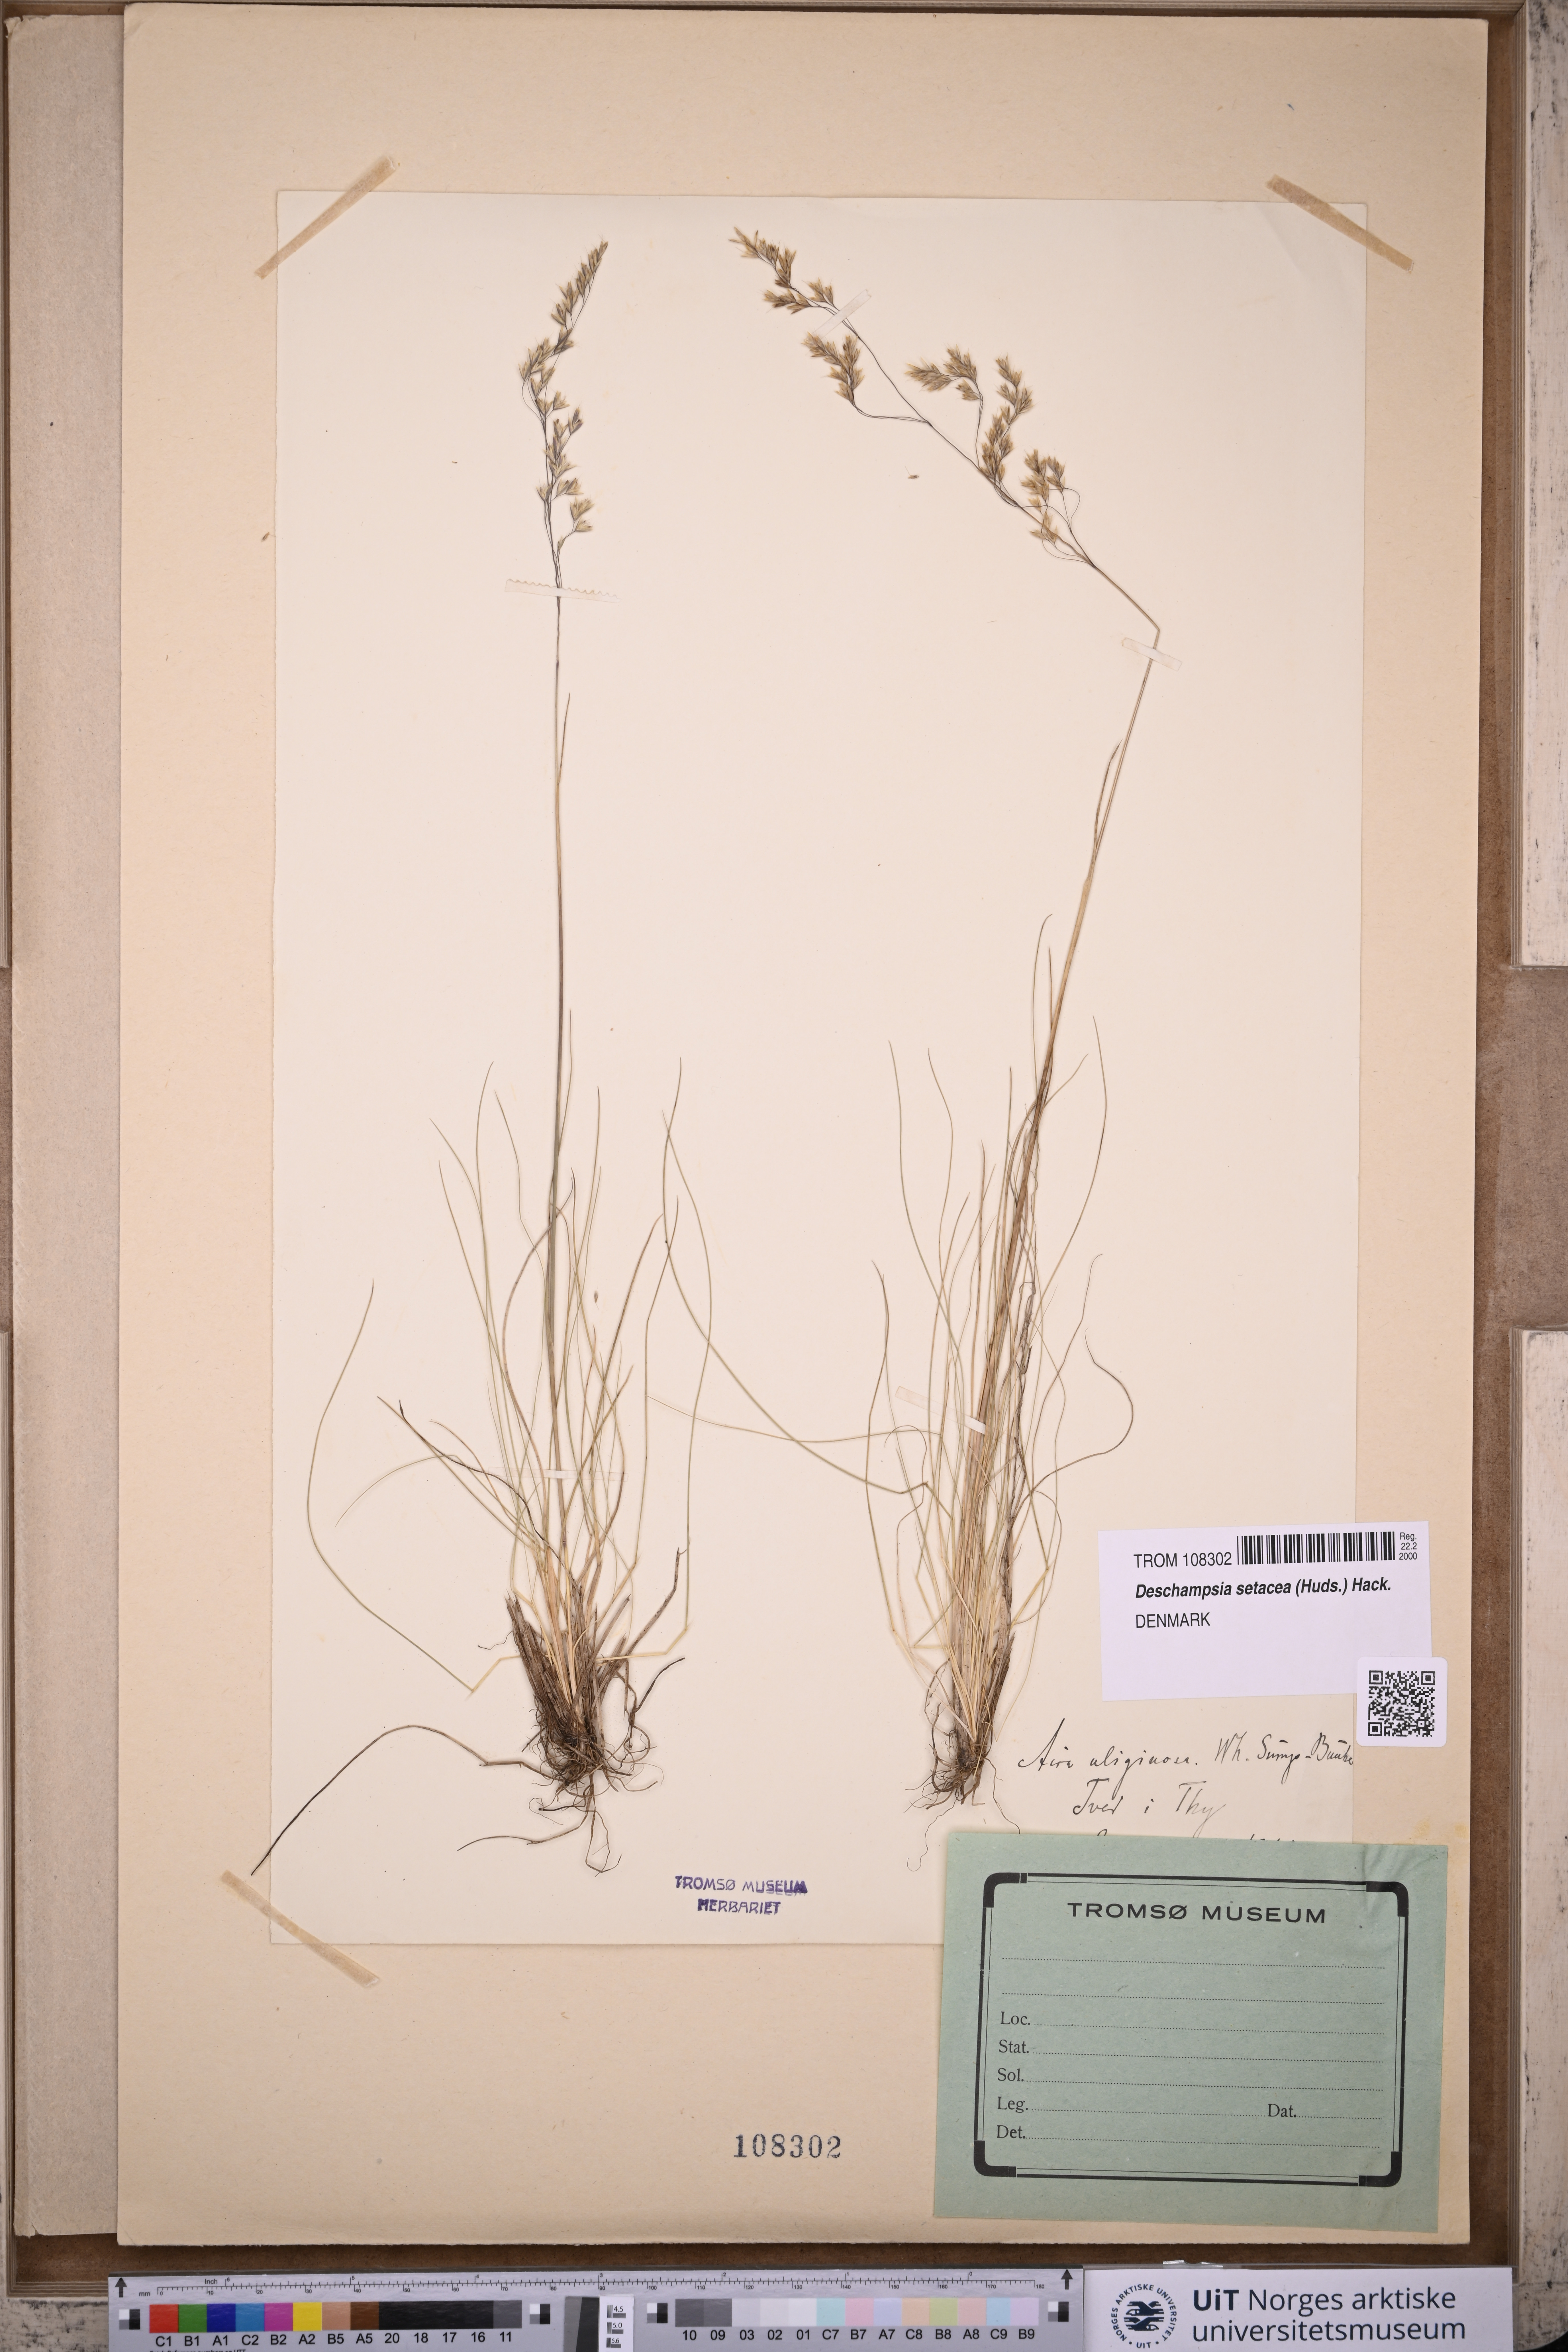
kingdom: Plantae
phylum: Tracheophyta
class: Liliopsida
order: Poales
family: Poaceae
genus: Deschampsia
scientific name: Deschampsia setacea
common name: Bog hair-grass
